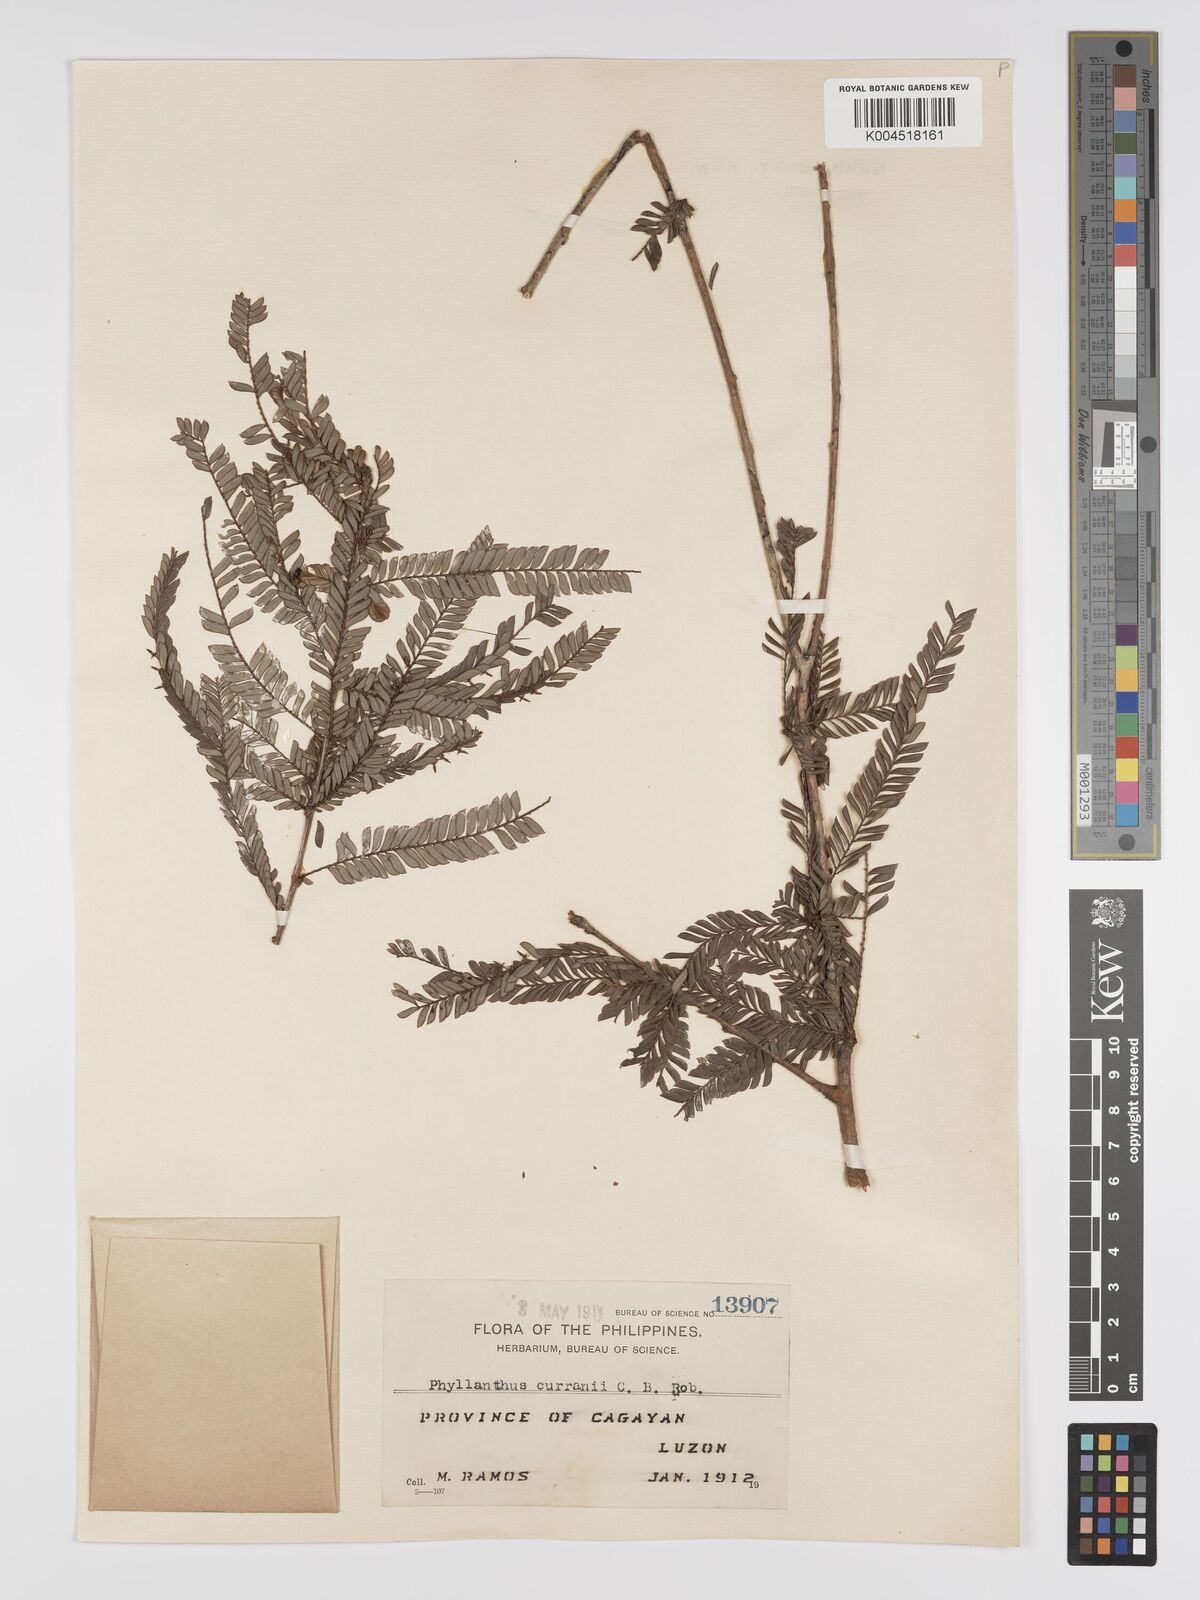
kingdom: Plantae
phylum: Tracheophyta
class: Magnoliopsida
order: Malpighiales
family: Phyllanthaceae
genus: Phyllanthus
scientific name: Phyllanthus curranii
